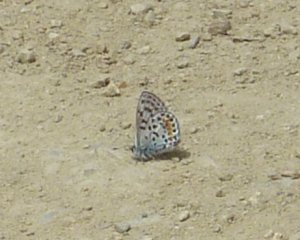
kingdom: Animalia
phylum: Arthropoda
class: Insecta
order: Lepidoptera
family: Lycaenidae
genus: Philotes
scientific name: Philotes bernardino
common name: Bernardino Blue
